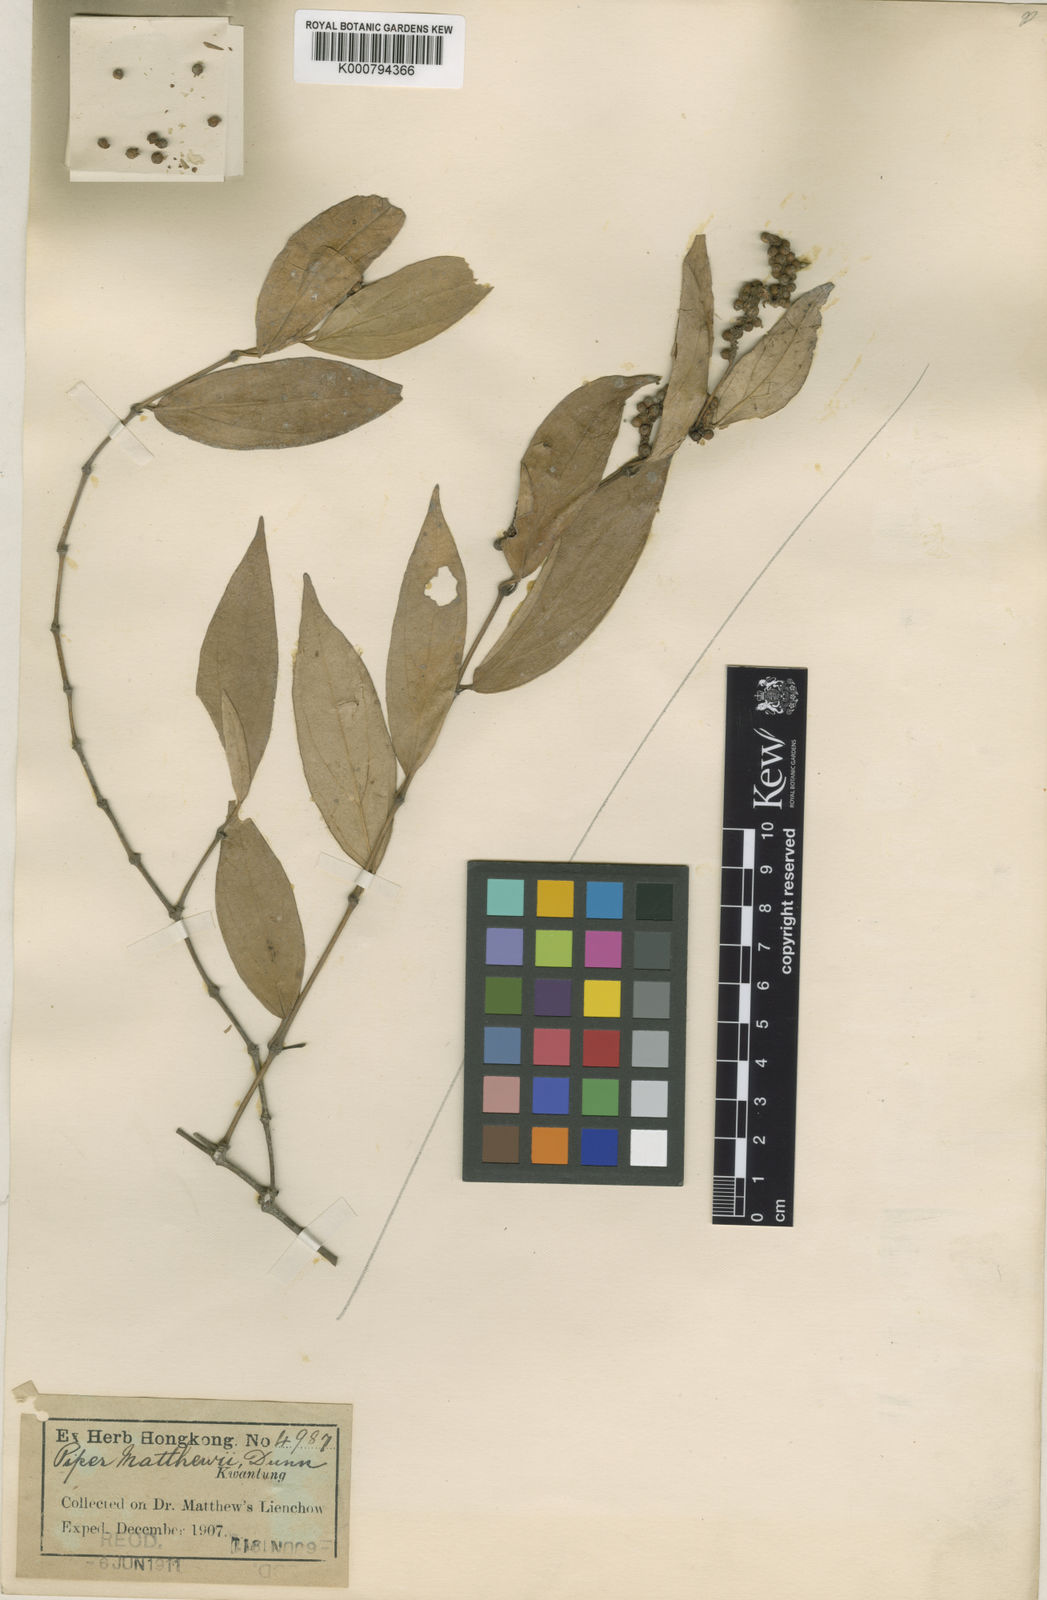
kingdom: Plantae
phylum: Tracheophyta
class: Magnoliopsida
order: Piperales
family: Piperaceae
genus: Piper
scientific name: Piper hancei
